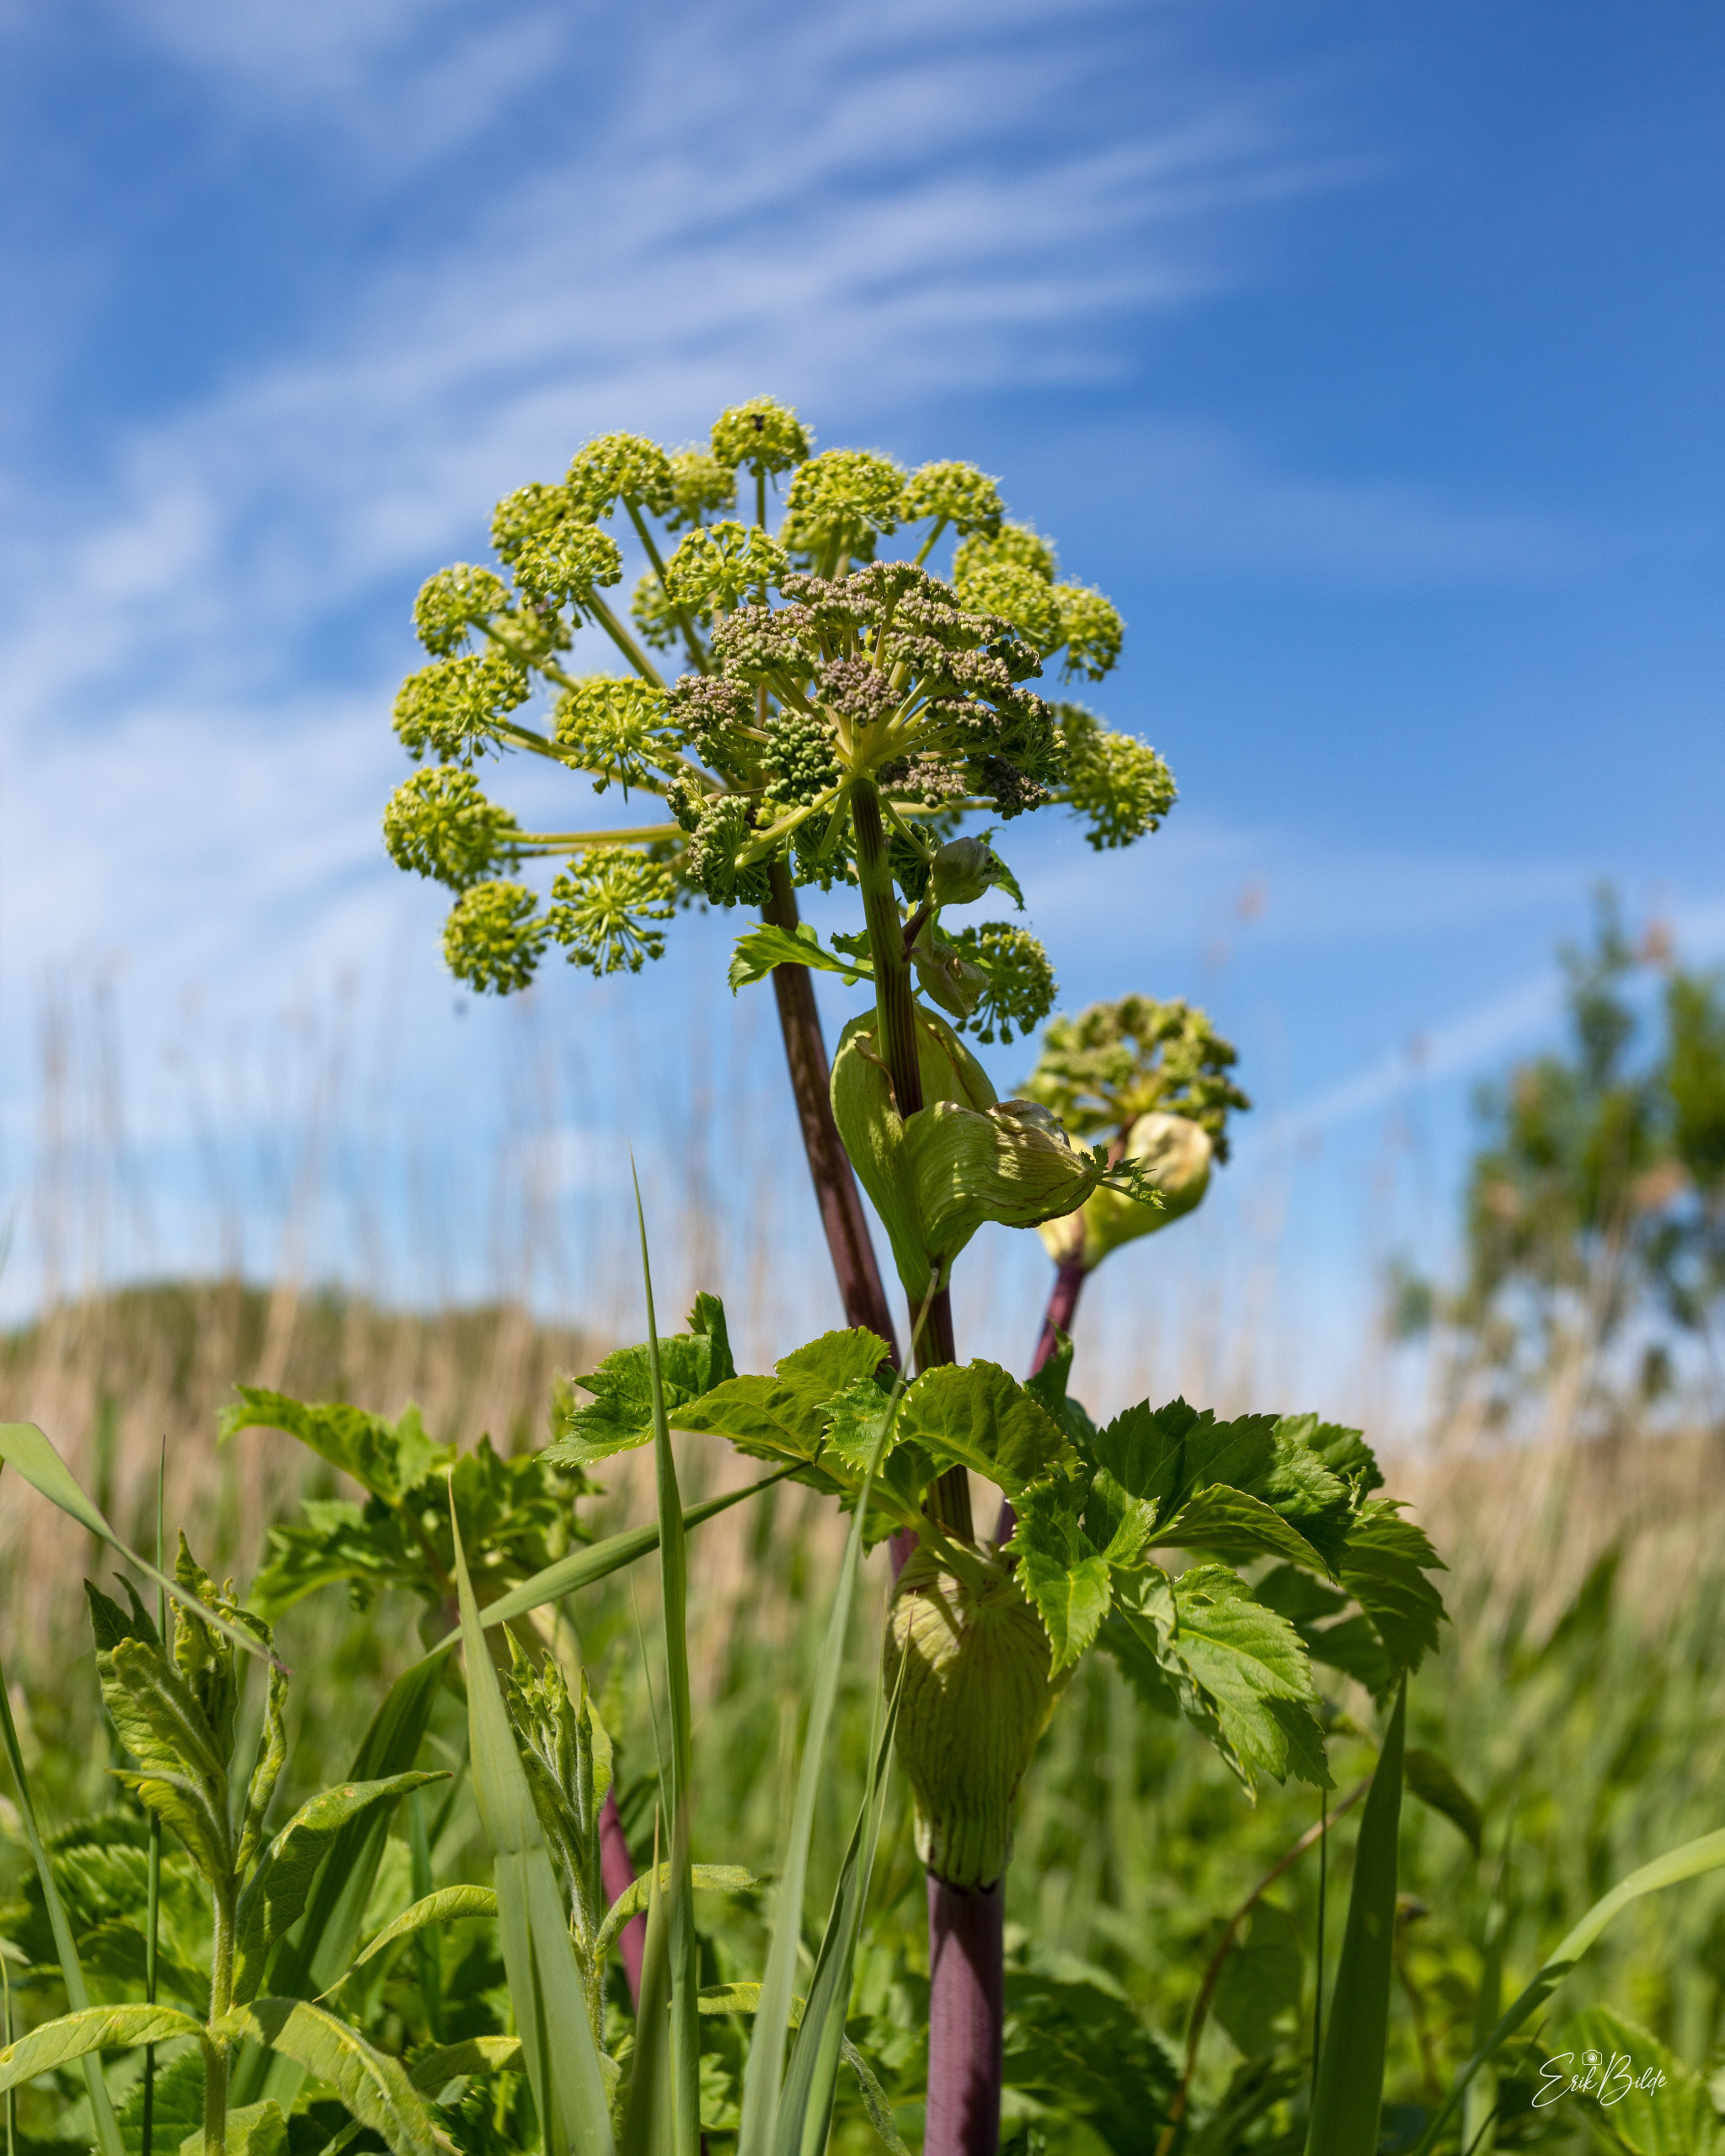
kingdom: Plantae
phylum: Tracheophyta
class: Magnoliopsida
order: Apiales
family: Apiaceae
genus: Angelica
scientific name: Angelica archangelica
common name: Kvan
